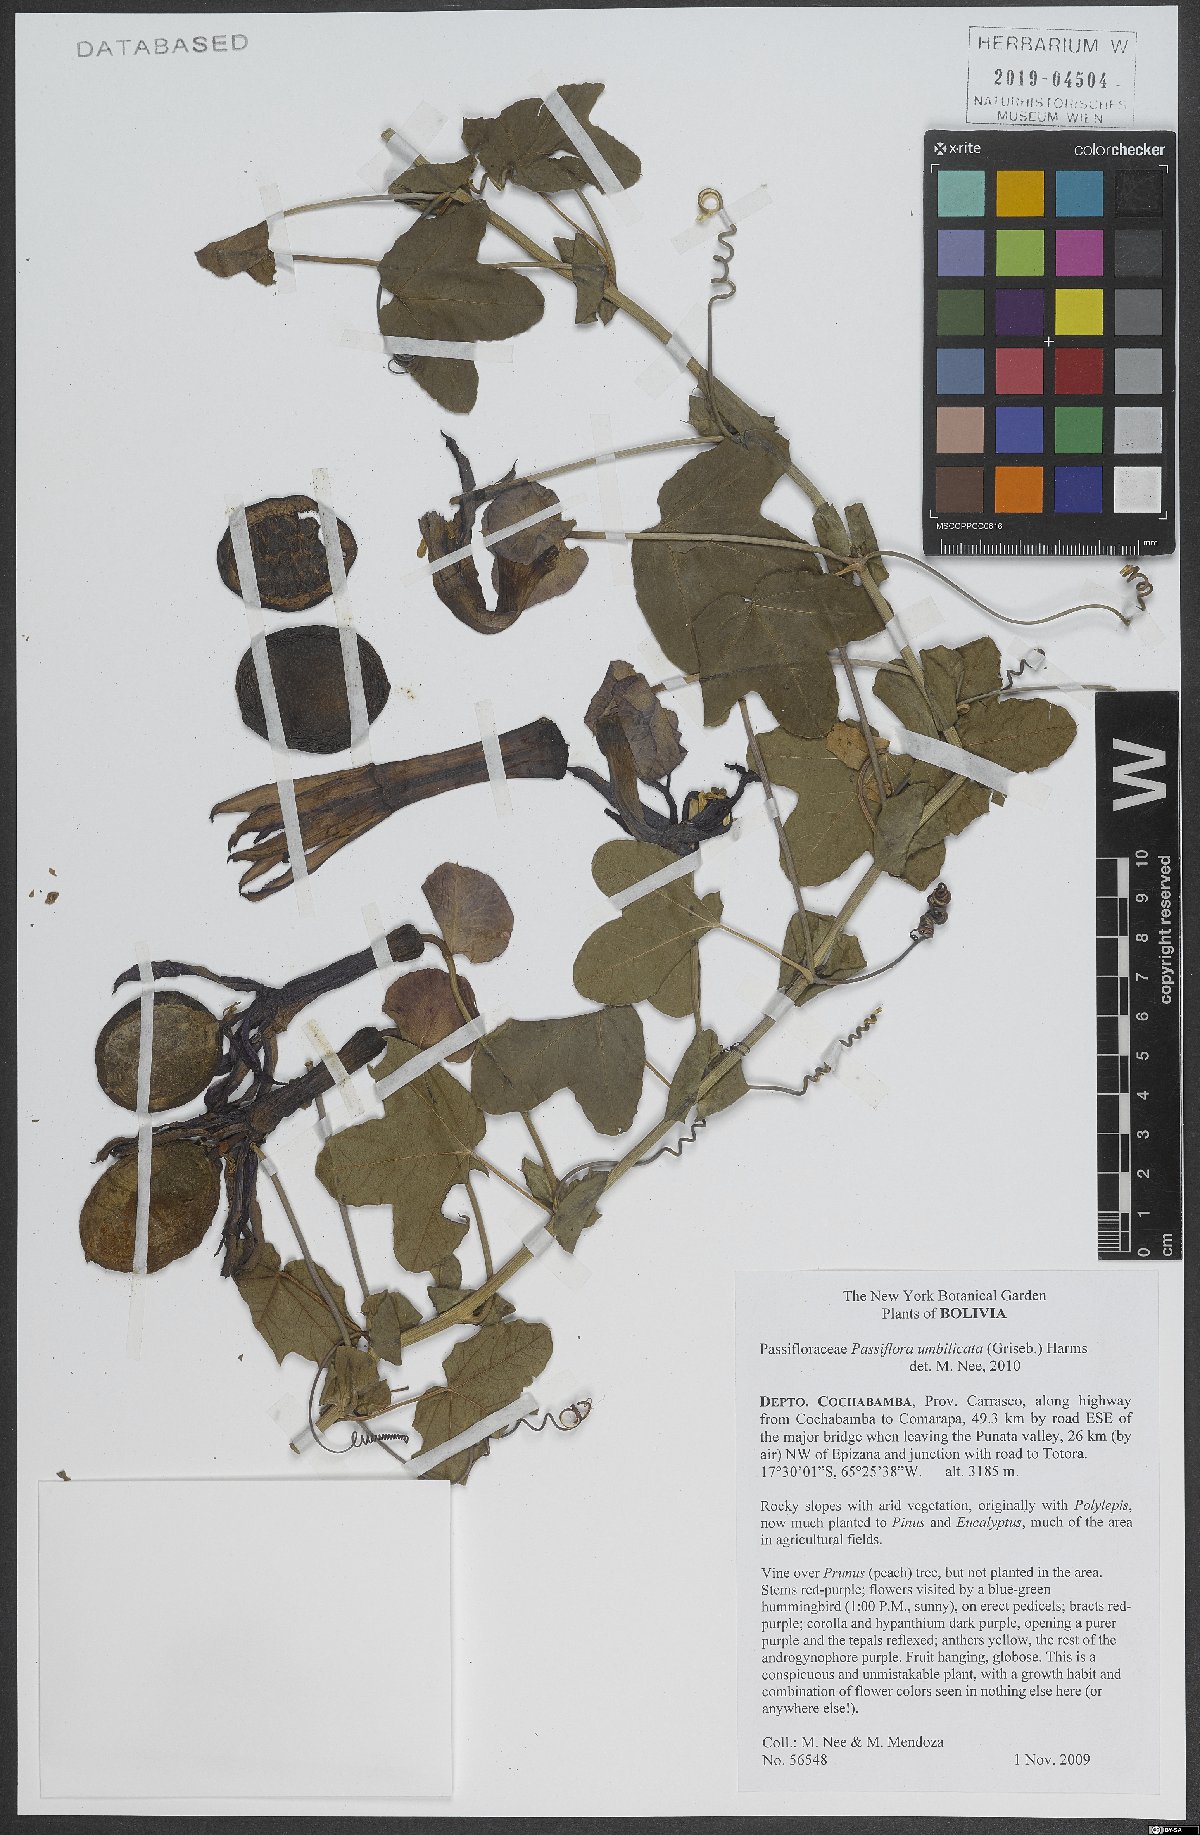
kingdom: Plantae
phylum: Tracheophyta
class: Magnoliopsida
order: Malpighiales
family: Passifloraceae
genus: Passiflora
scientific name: Passiflora umbilicata
